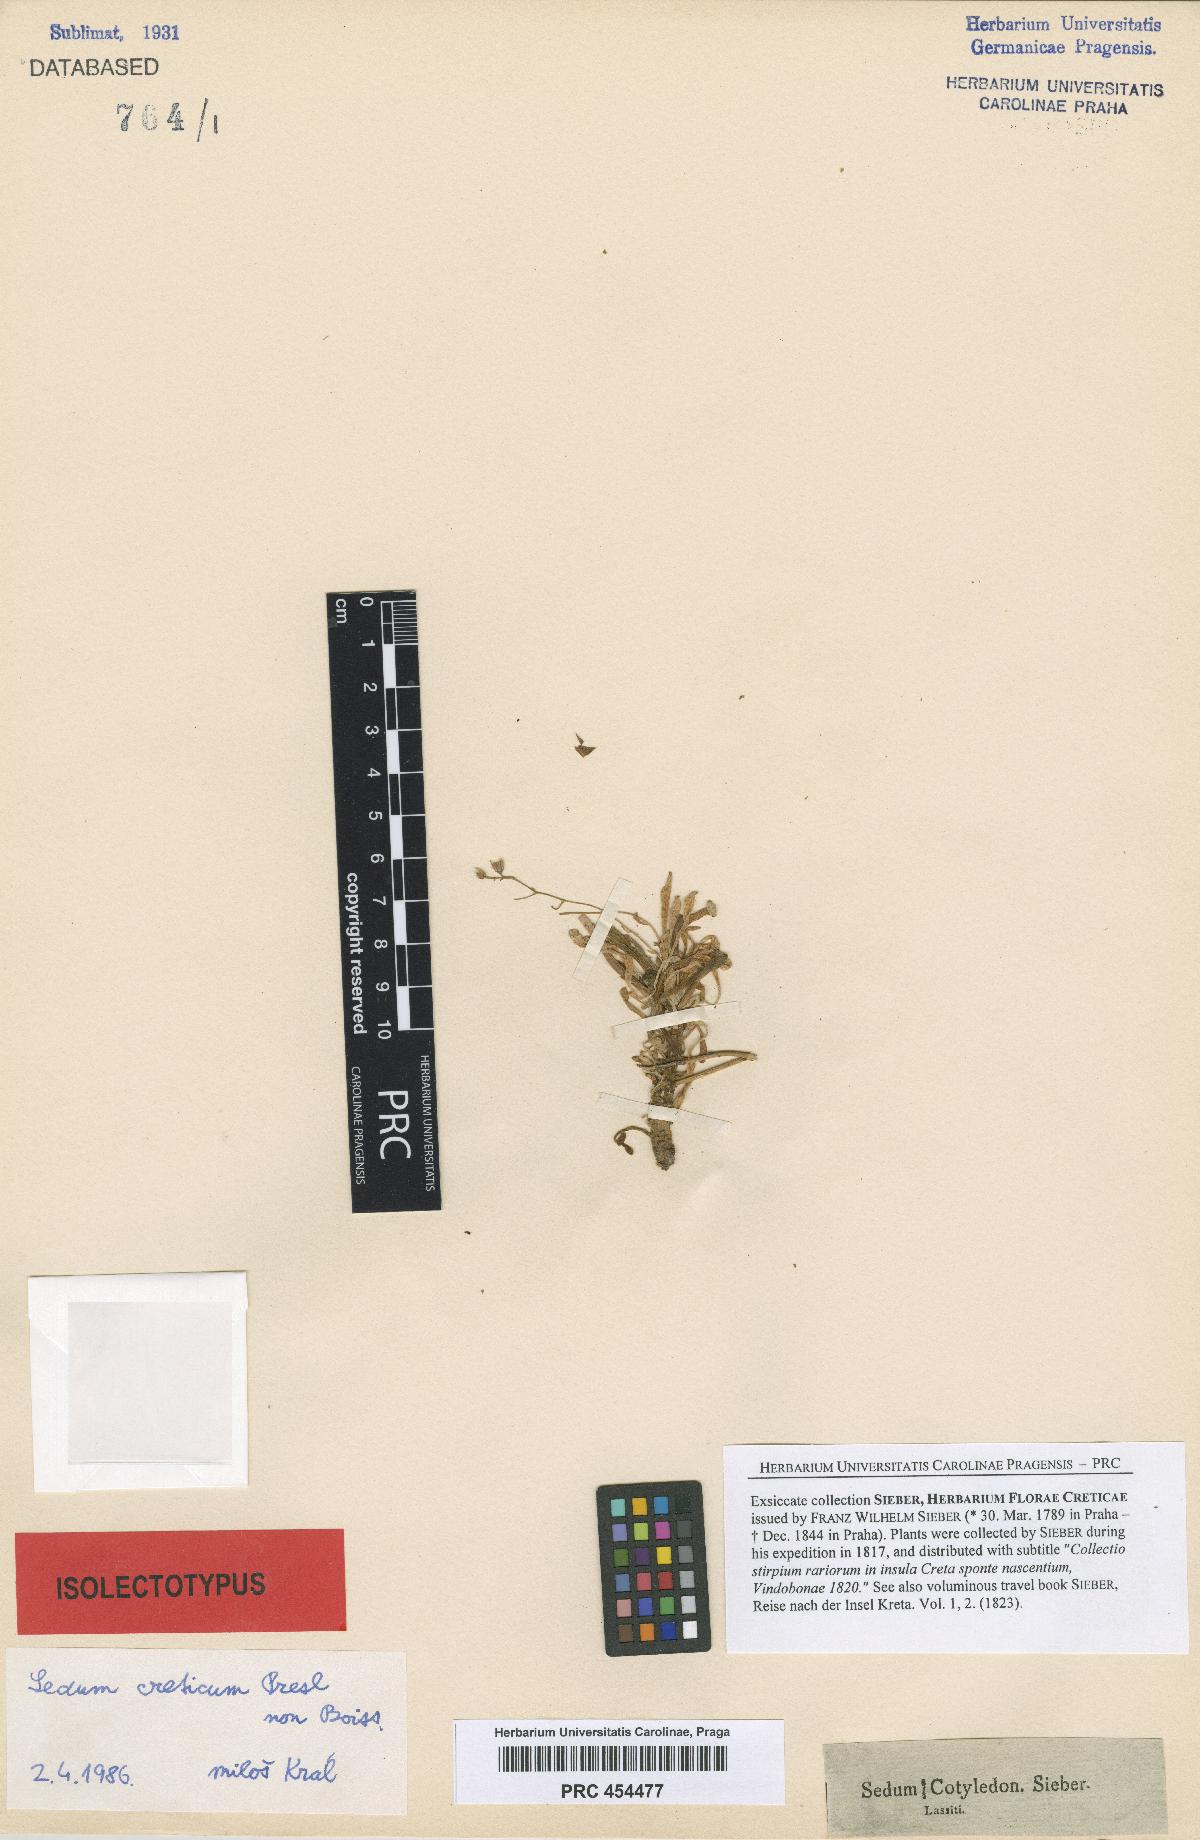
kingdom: Plantae
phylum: Tracheophyta
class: Magnoliopsida
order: Saxifragales
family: Crassulaceae
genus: Sedum
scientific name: Sedum creticum
